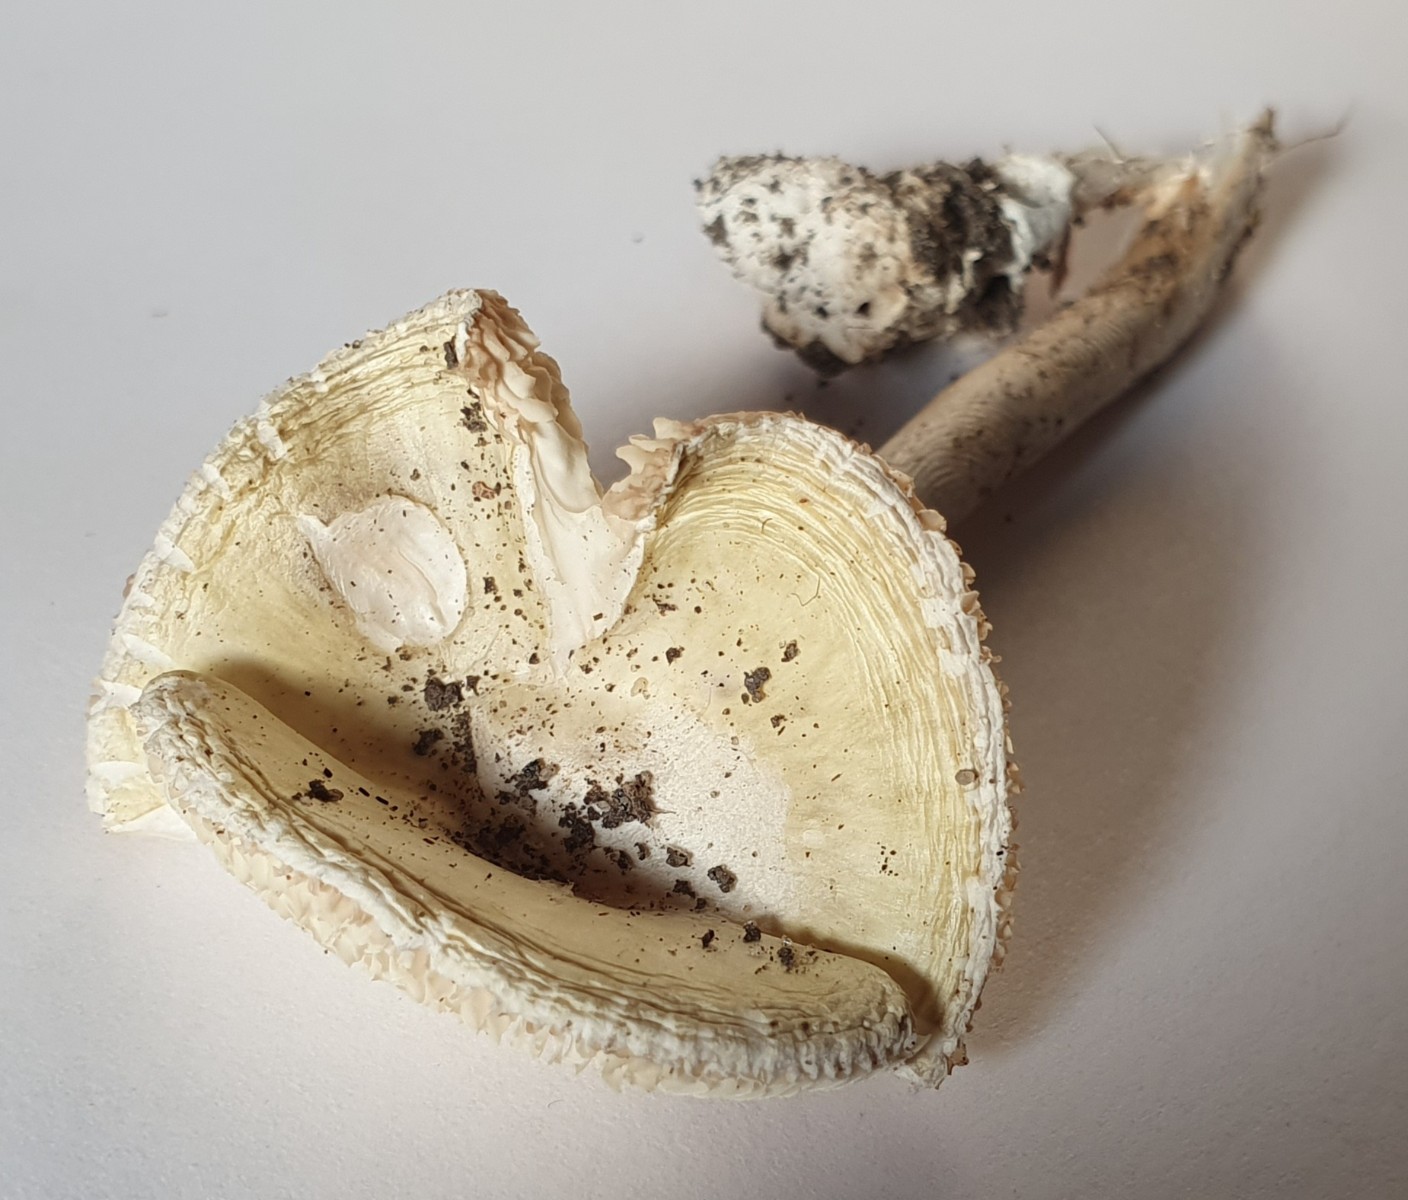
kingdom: Fungi
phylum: Basidiomycota
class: Agaricomycetes
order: Agaricales
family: Amanitaceae
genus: Amanita
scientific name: Amanita
